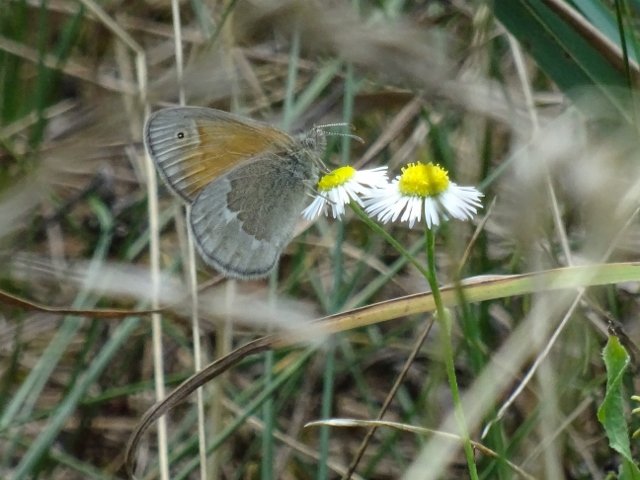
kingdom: Animalia
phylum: Arthropoda
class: Insecta
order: Lepidoptera
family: Nymphalidae
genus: Coenonympha
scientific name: Coenonympha tullia
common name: Large Heath
